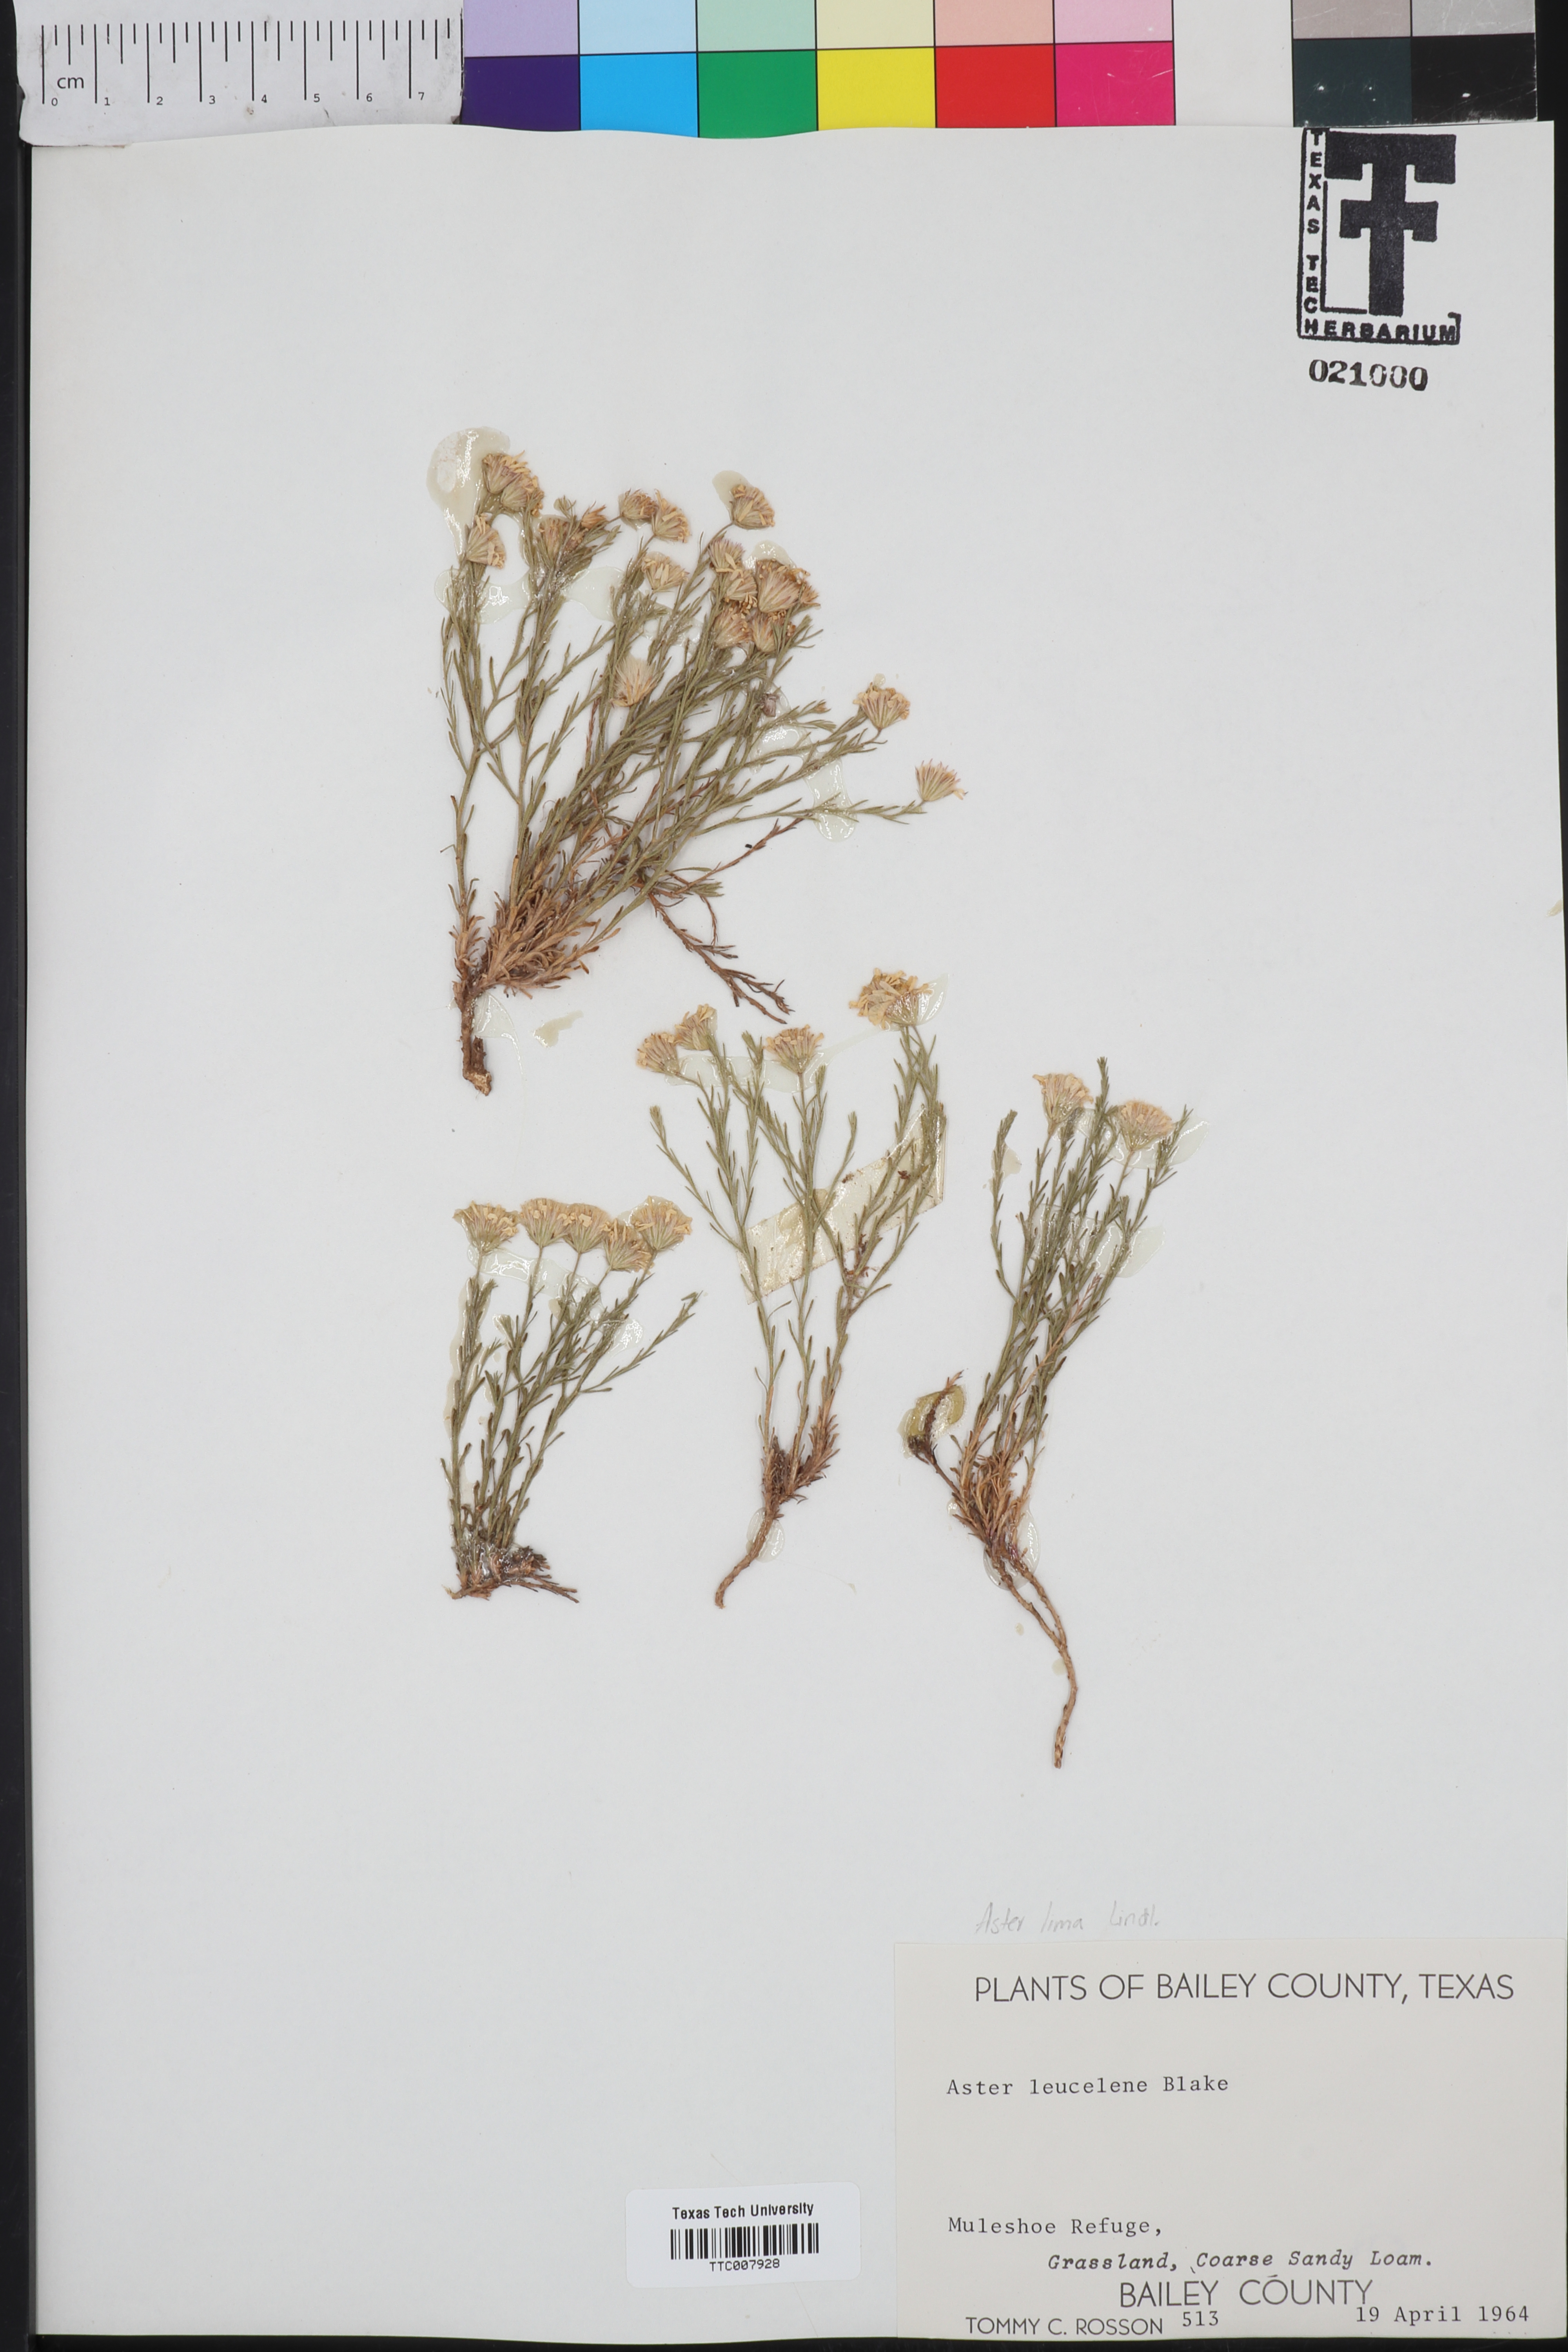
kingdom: Plantae
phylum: Tracheophyta
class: Magnoliopsida
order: Asterales
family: Asteraceae
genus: Chaetopappa
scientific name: Chaetopappa ericoides
